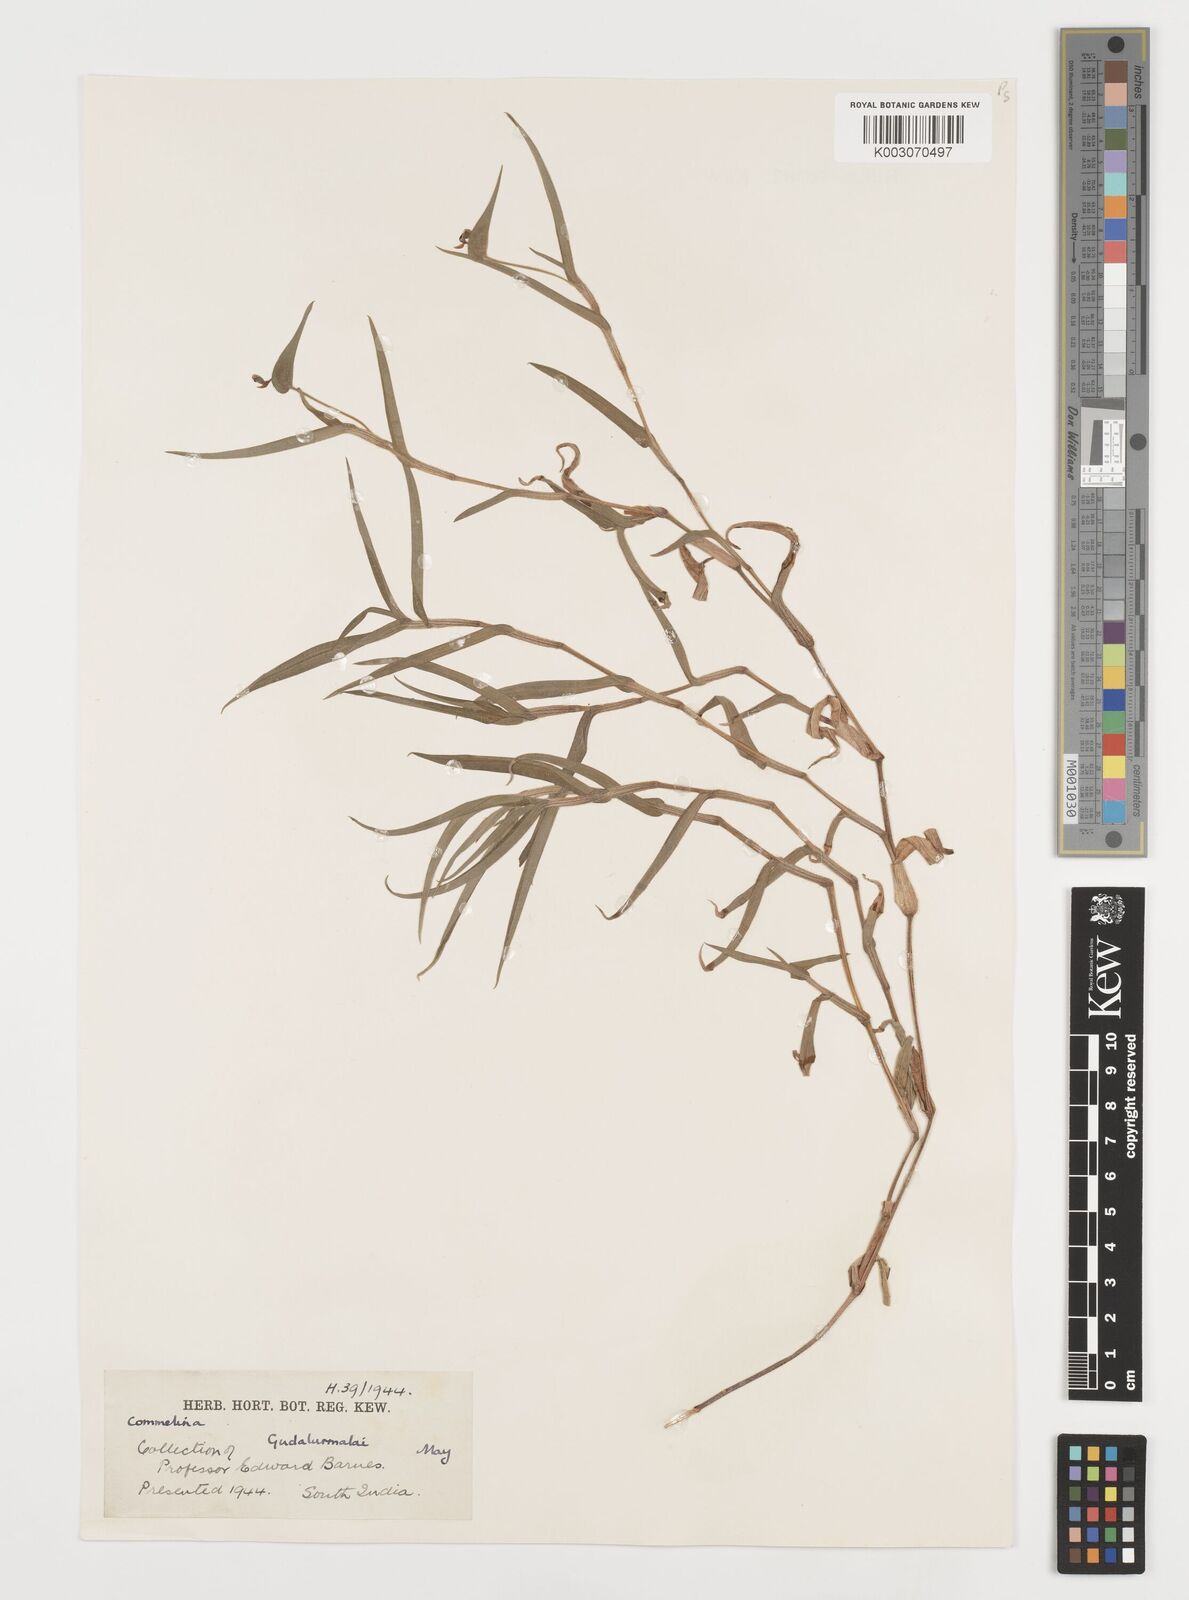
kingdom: Plantae
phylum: Tracheophyta
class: Liliopsida
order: Commelinales
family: Commelinaceae
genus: Commelina
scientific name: Commelina
